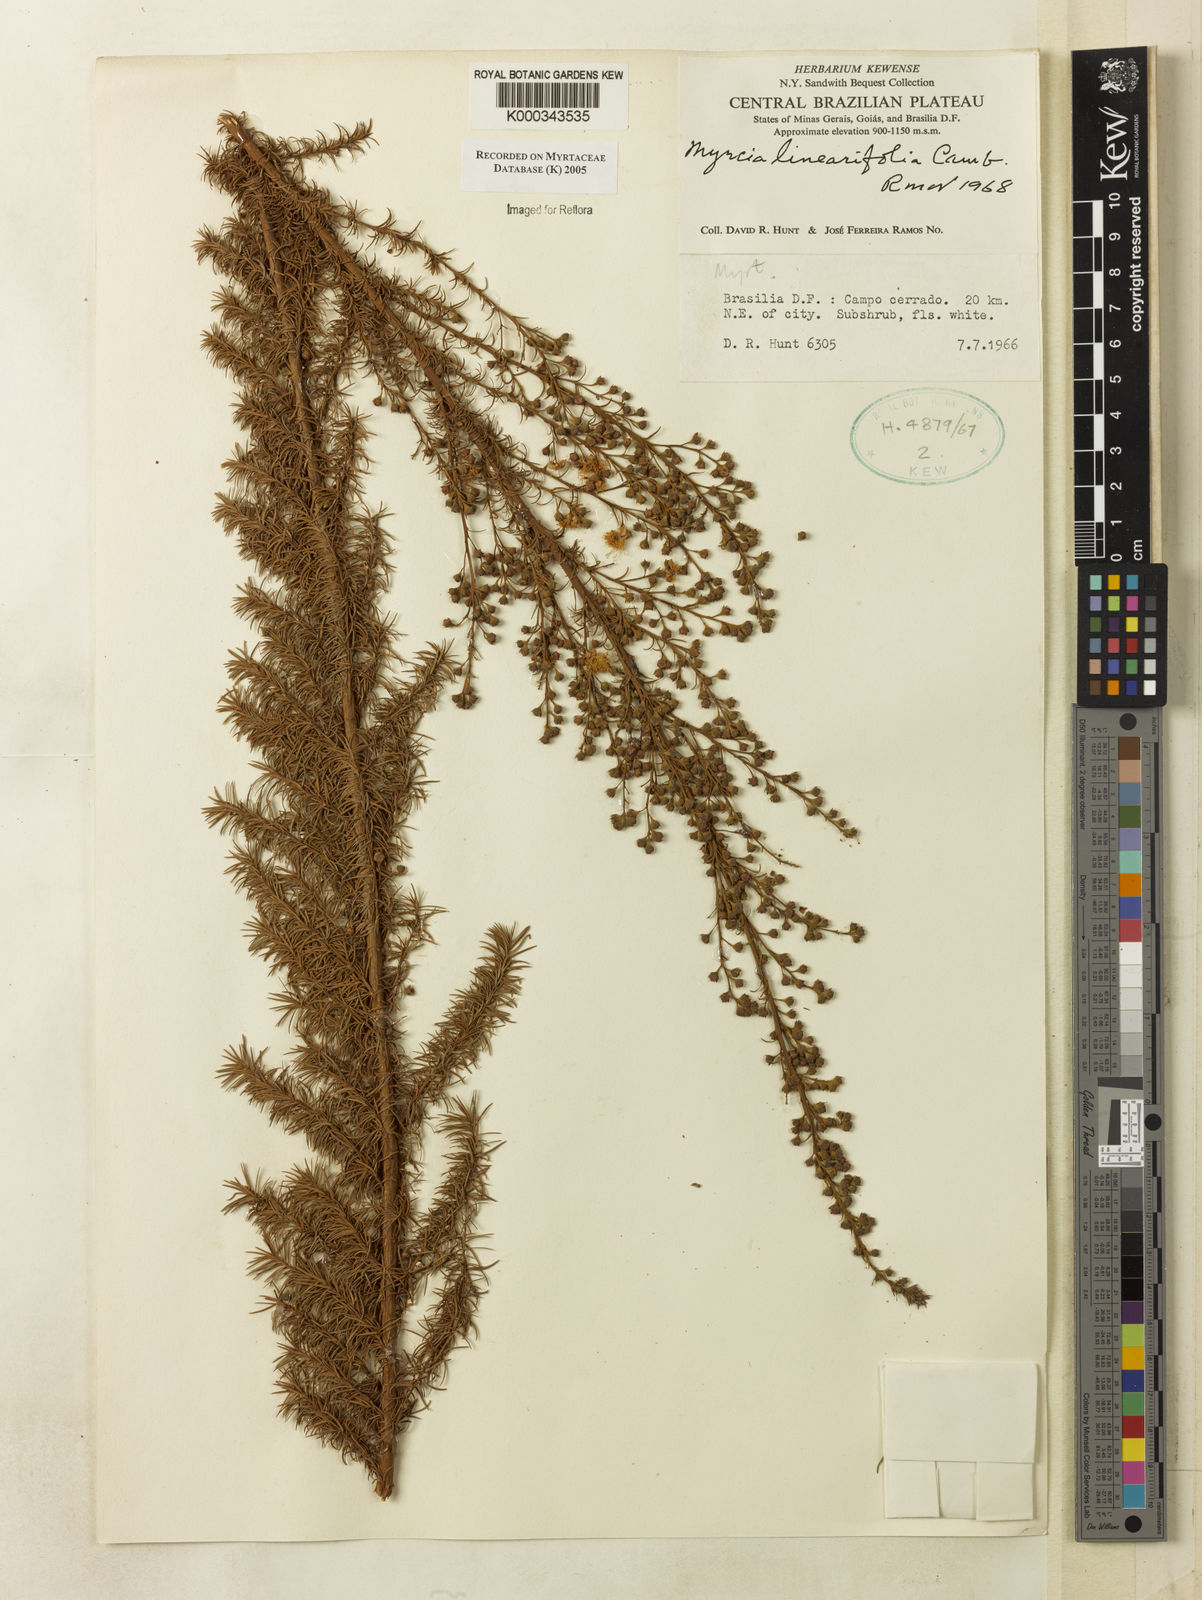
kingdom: Plantae
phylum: Tracheophyta
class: Magnoliopsida
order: Myrtales
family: Myrtaceae
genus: Myrcia
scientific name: Myrcia linearifolia
